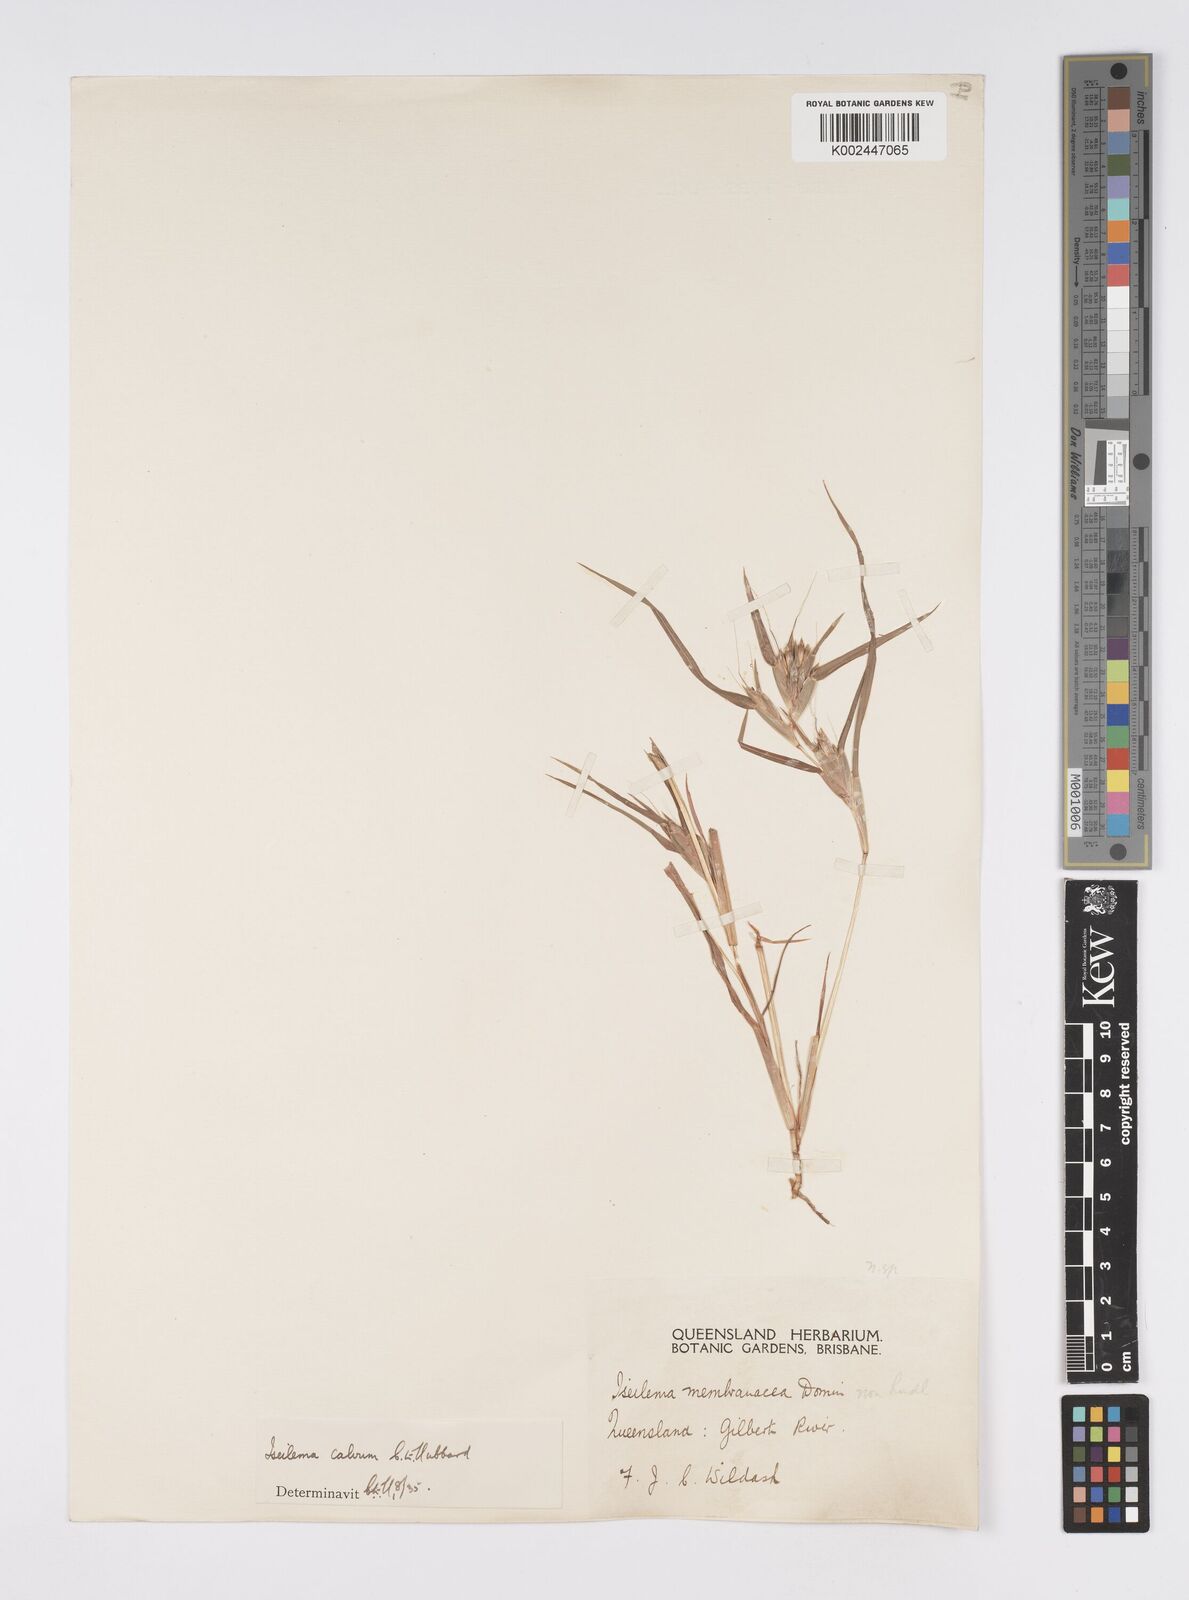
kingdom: Plantae
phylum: Tracheophyta
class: Liliopsida
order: Poales
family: Poaceae
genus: Iseilema
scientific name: Iseilema calvum
